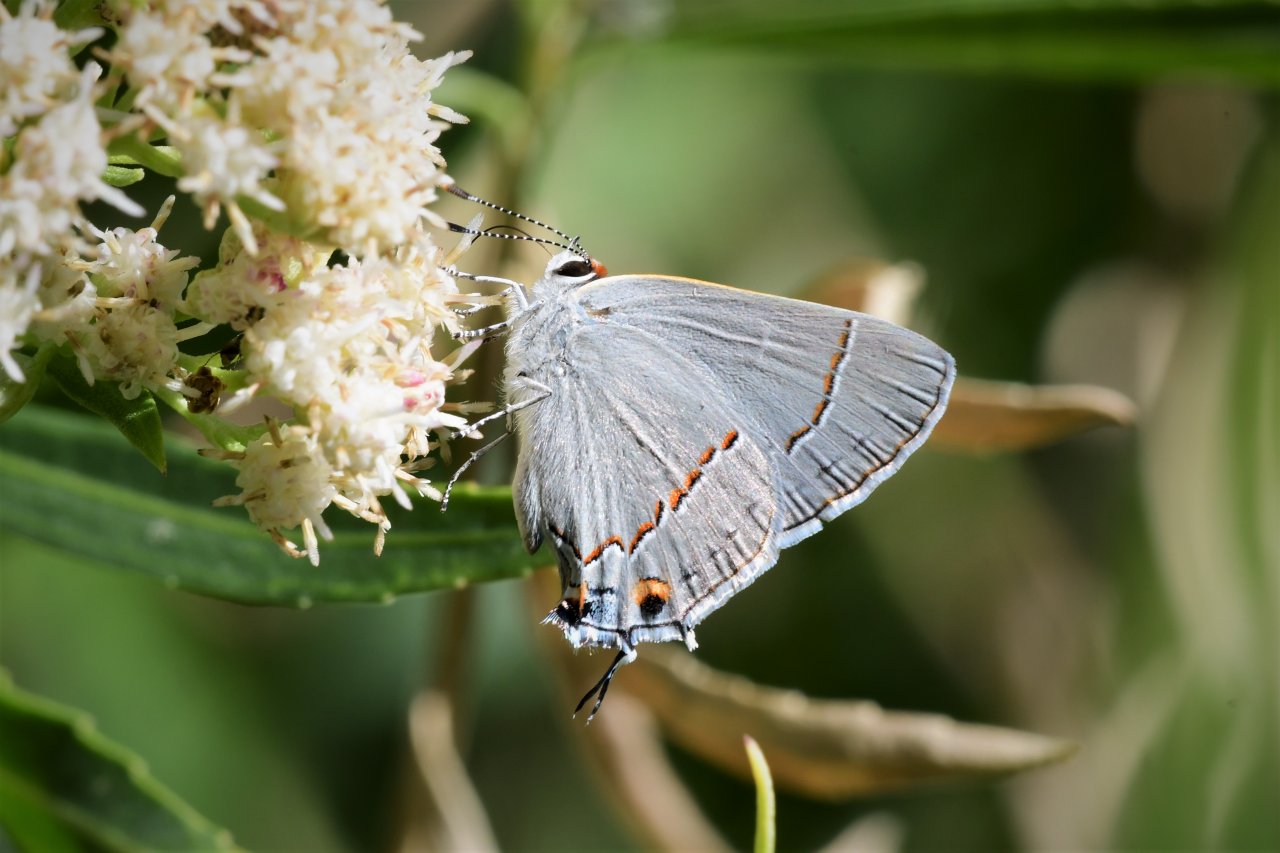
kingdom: Animalia
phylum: Arthropoda
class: Insecta
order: Lepidoptera
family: Lycaenidae
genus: Strymon
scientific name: Strymon melinus
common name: Gray Hairstreak
